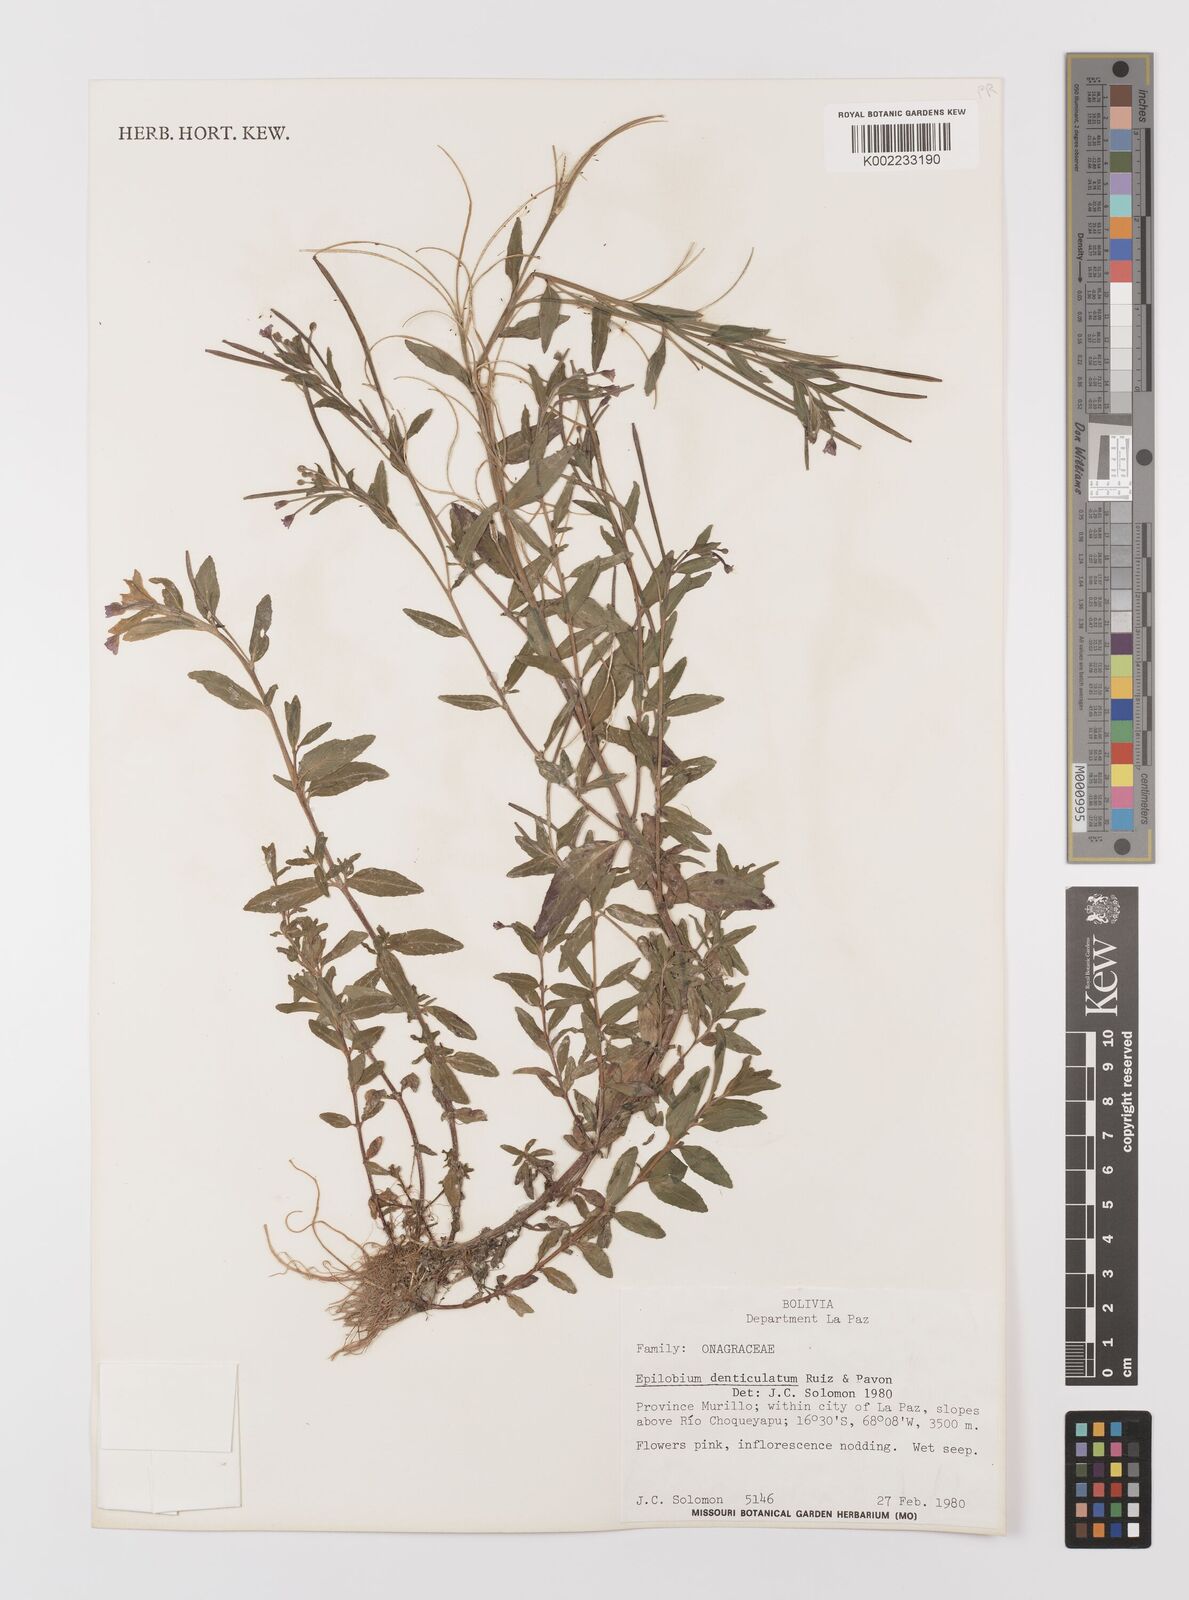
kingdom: Plantae
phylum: Tracheophyta
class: Magnoliopsida
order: Myrtales
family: Onagraceae
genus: Epilobium
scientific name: Epilobium denticulatum
